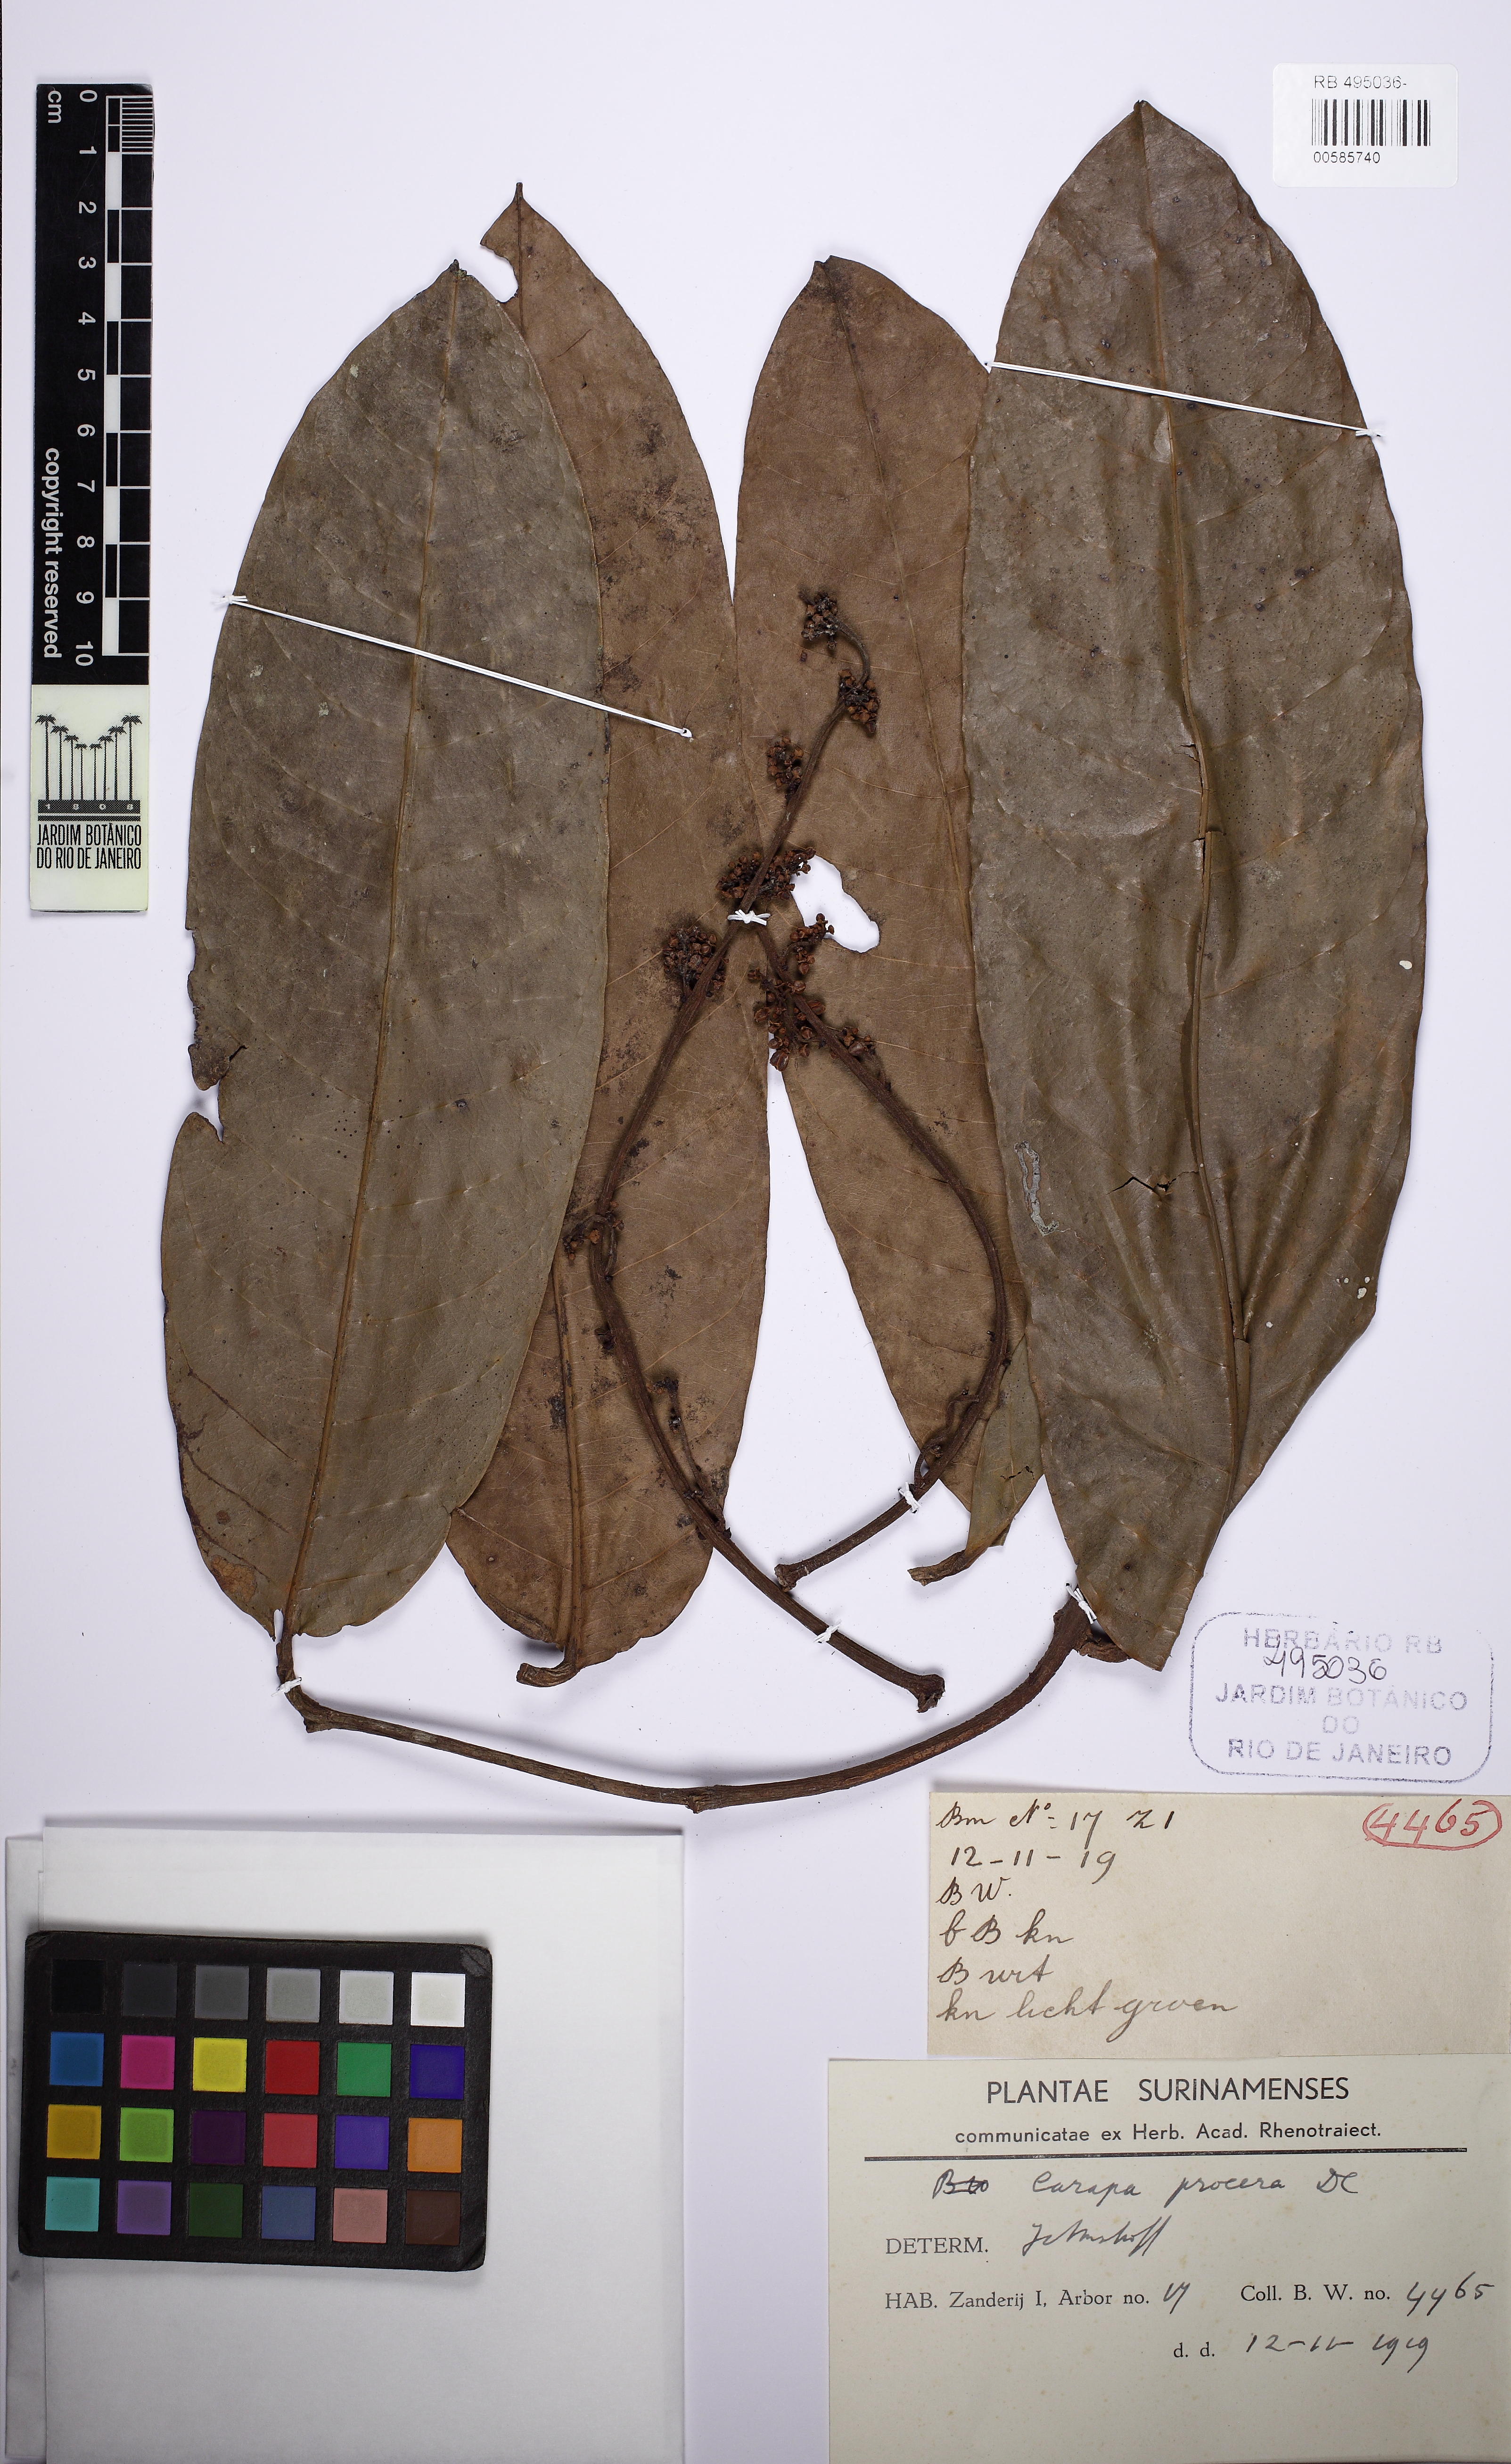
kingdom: Plantae
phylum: Tracheophyta
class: Magnoliopsida
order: Sapindales
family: Meliaceae
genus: Carapa
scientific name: Carapa procera
